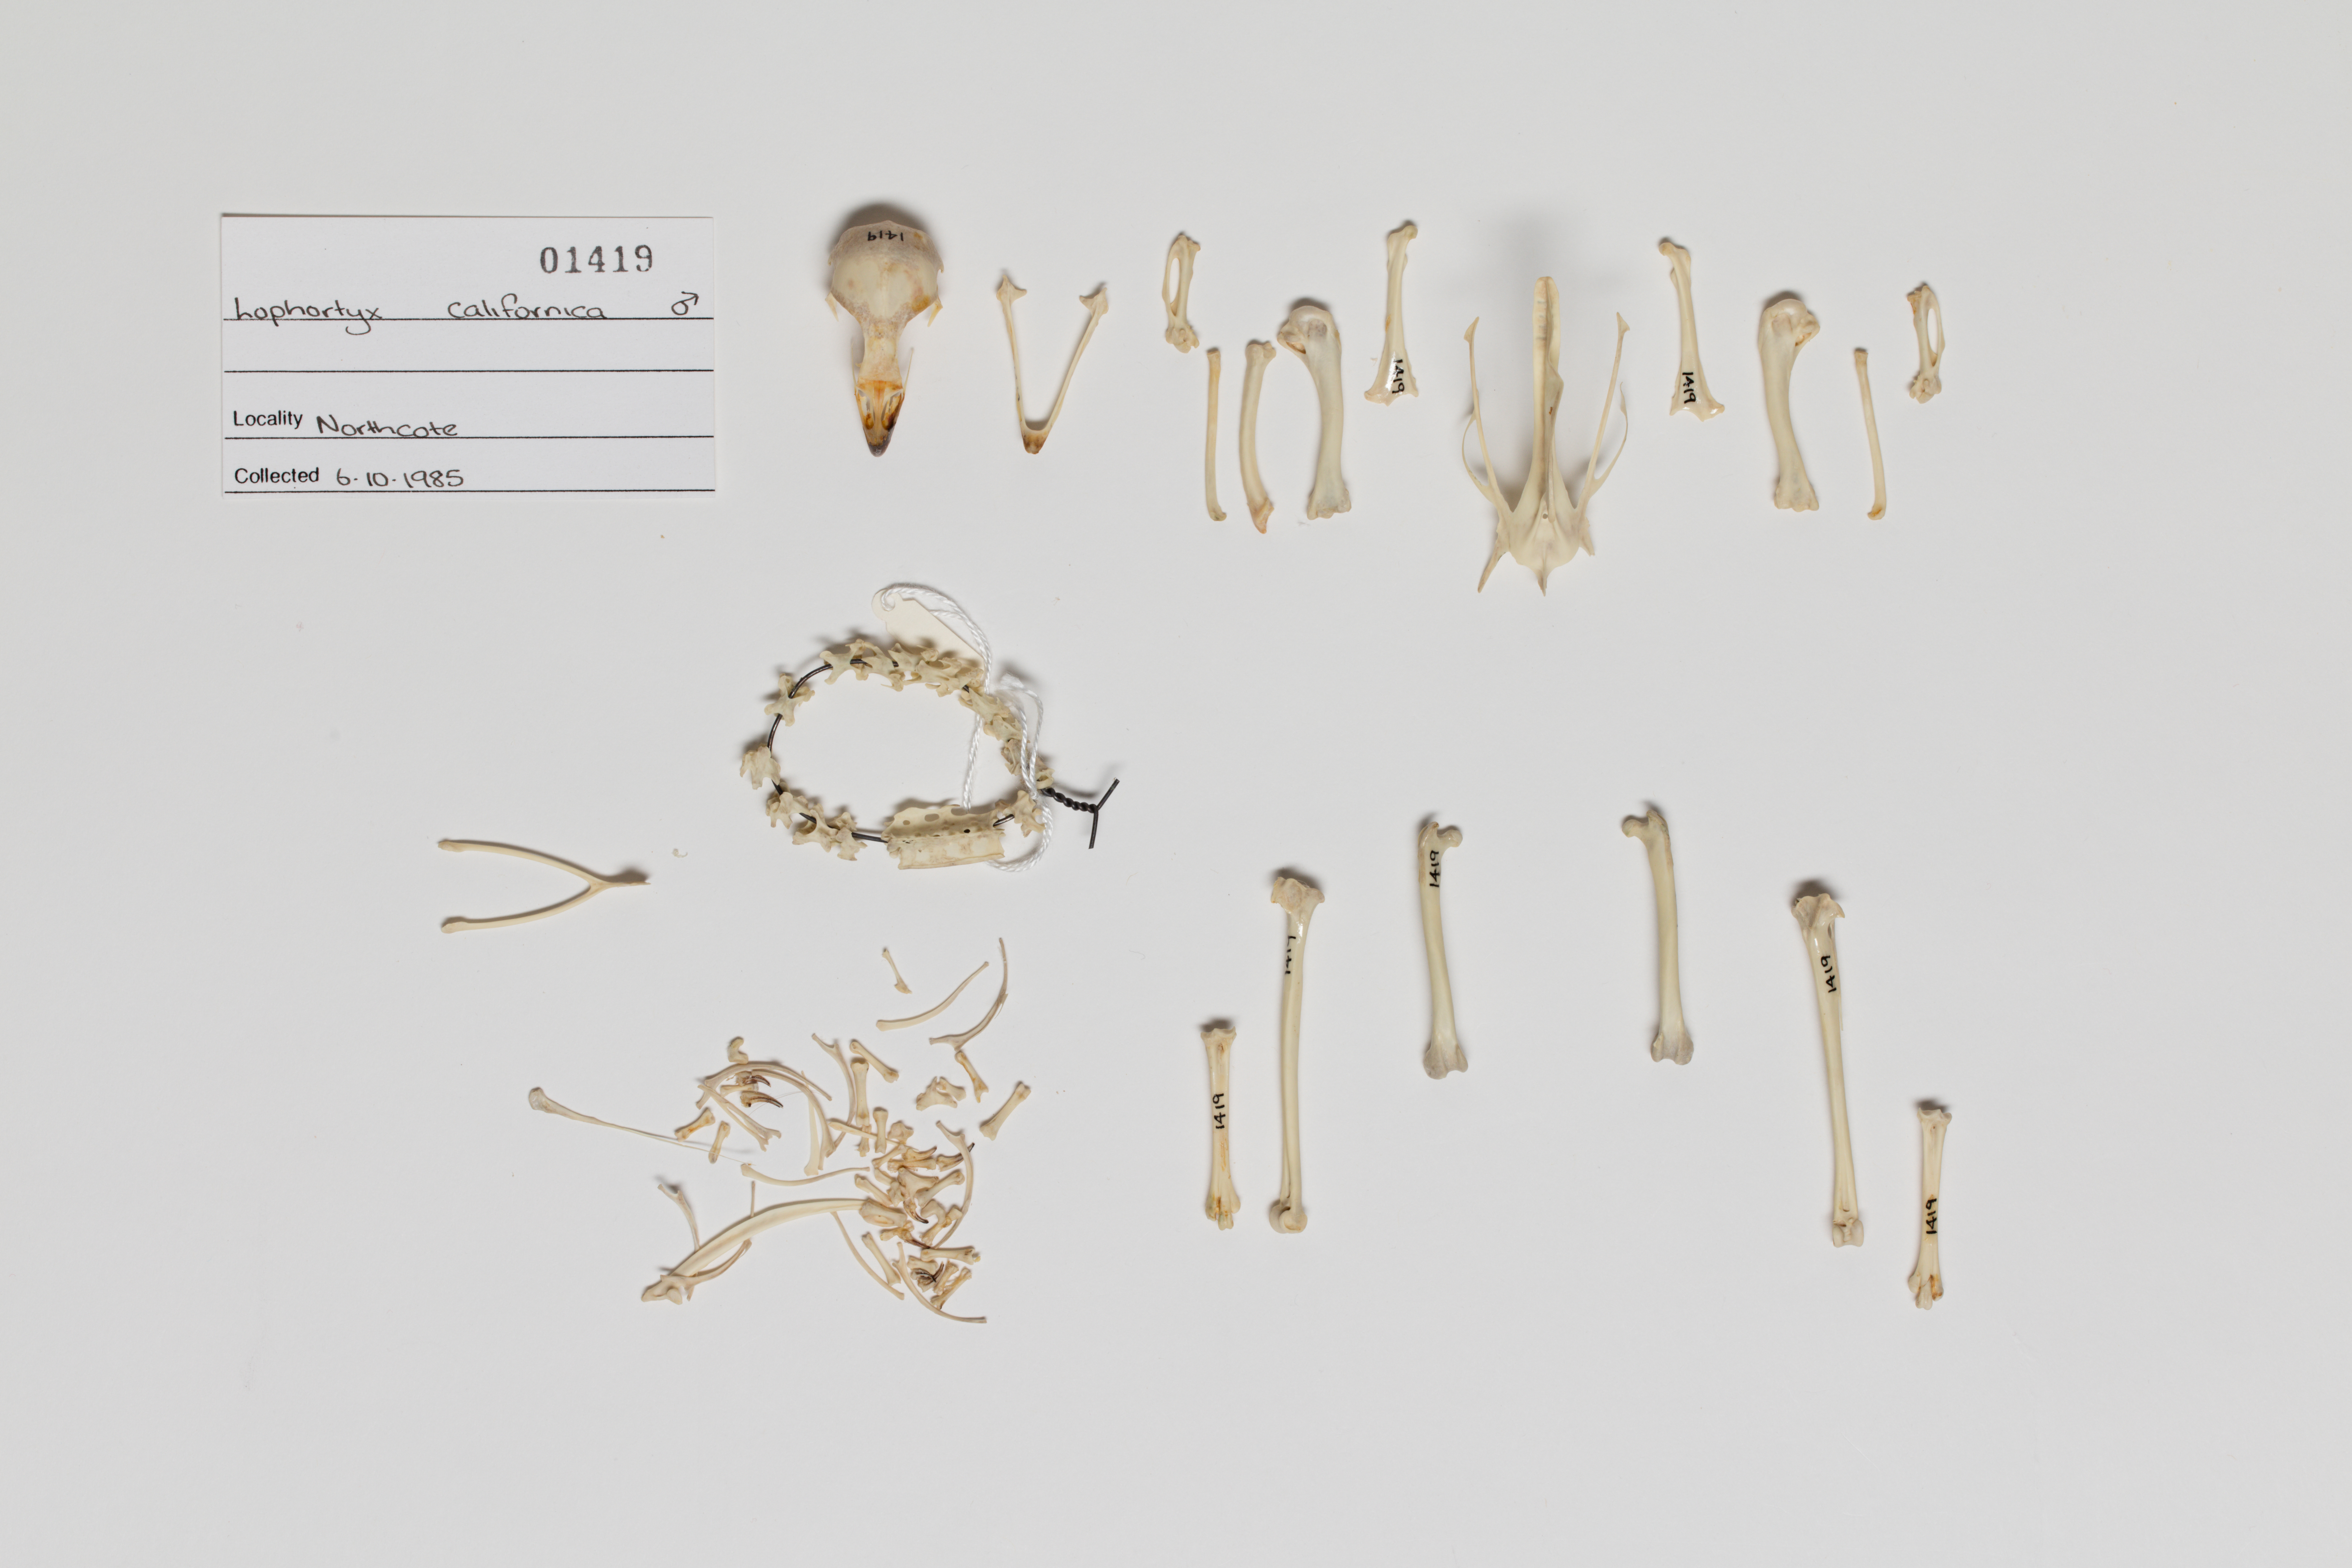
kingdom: Animalia
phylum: Chordata
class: Aves
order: Galliformes
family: Odontophoridae
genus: Callipepla
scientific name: Callipepla californica
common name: California quail
